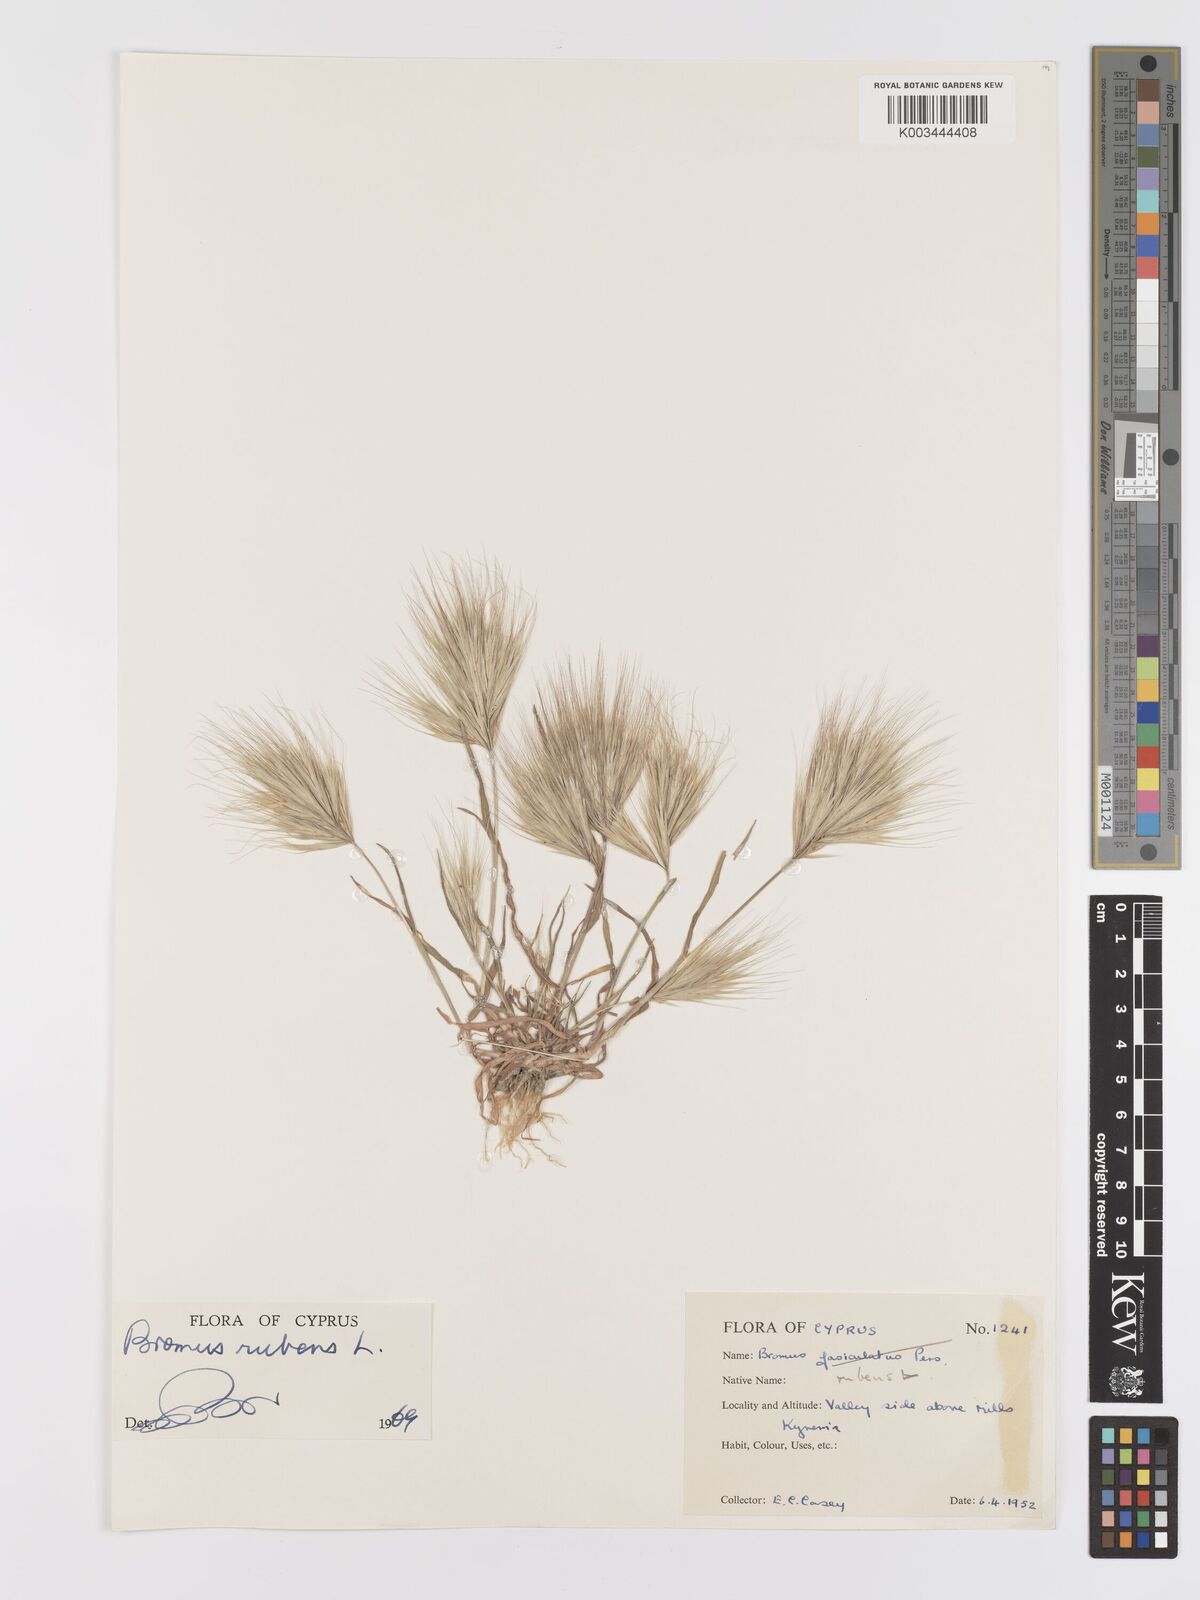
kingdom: Plantae
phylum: Tracheophyta
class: Liliopsida
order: Poales
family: Poaceae
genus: Bromus
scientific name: Bromus rubens
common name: Red brome
